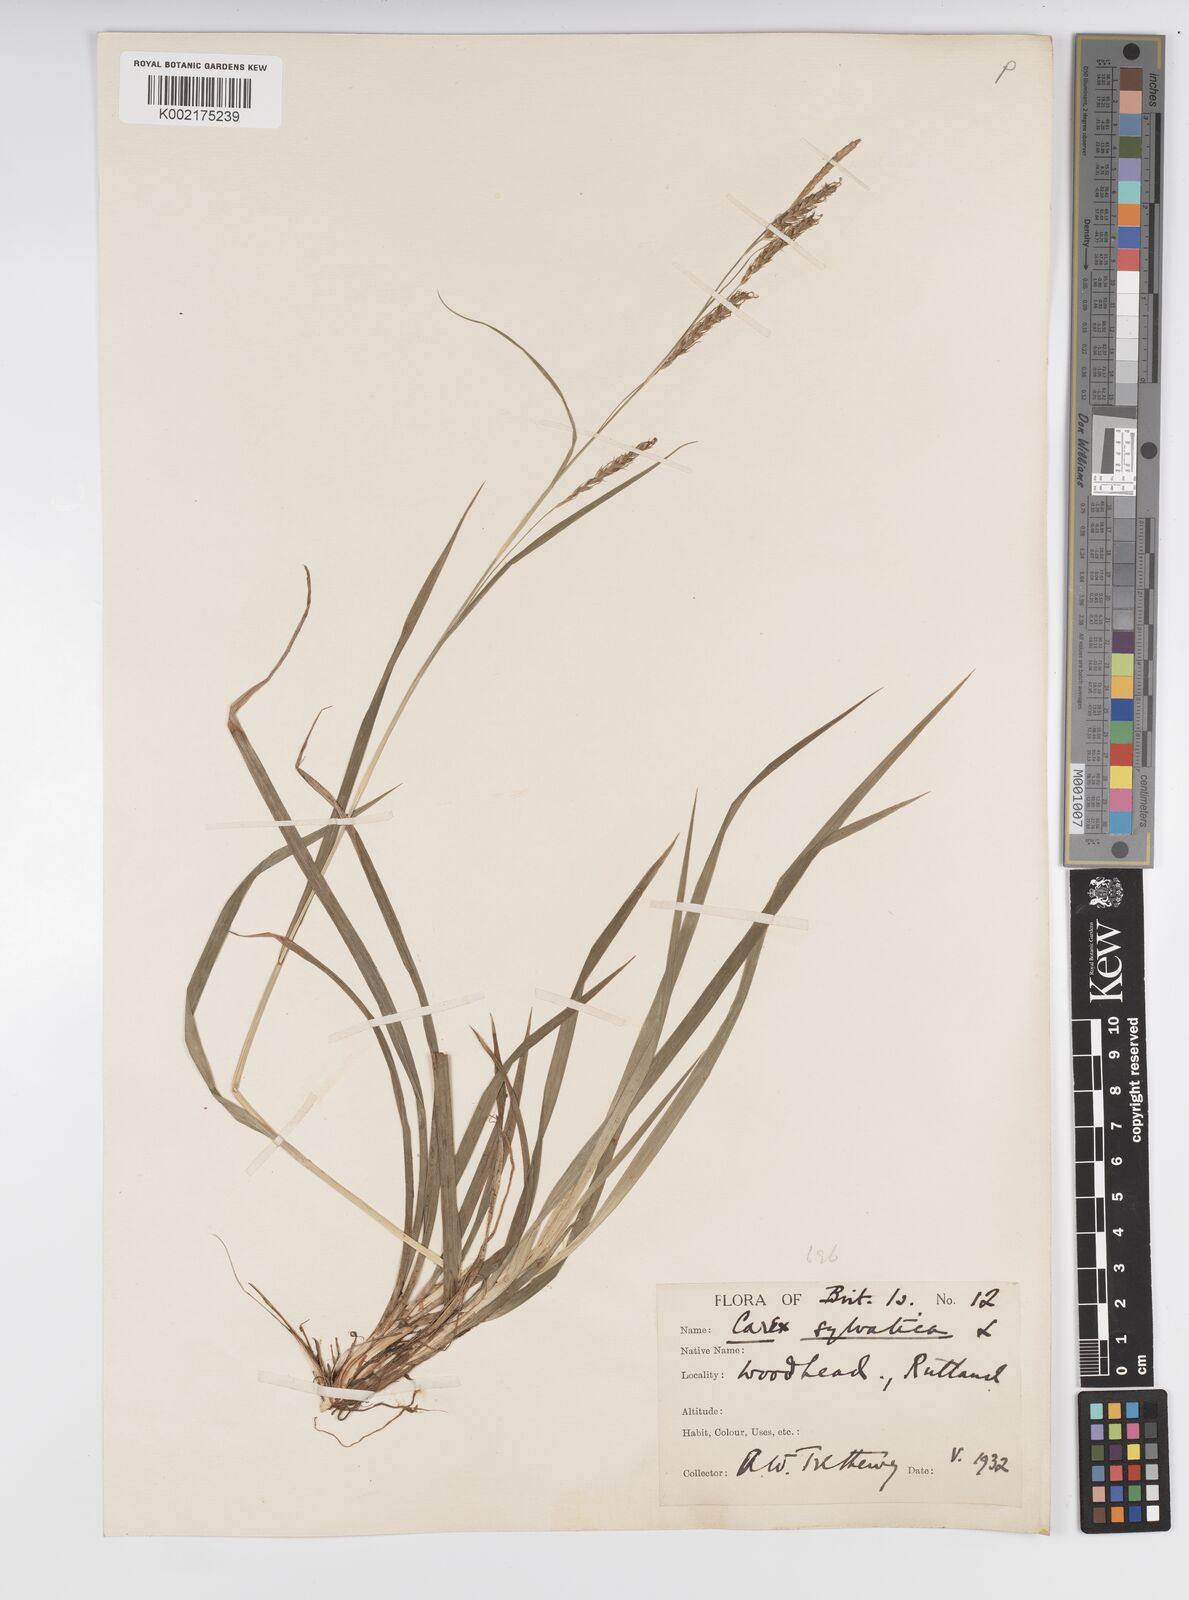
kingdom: Plantae
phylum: Tracheophyta
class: Liliopsida
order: Poales
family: Cyperaceae
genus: Carex
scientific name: Carex sylvatica
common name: Wood-sedge
